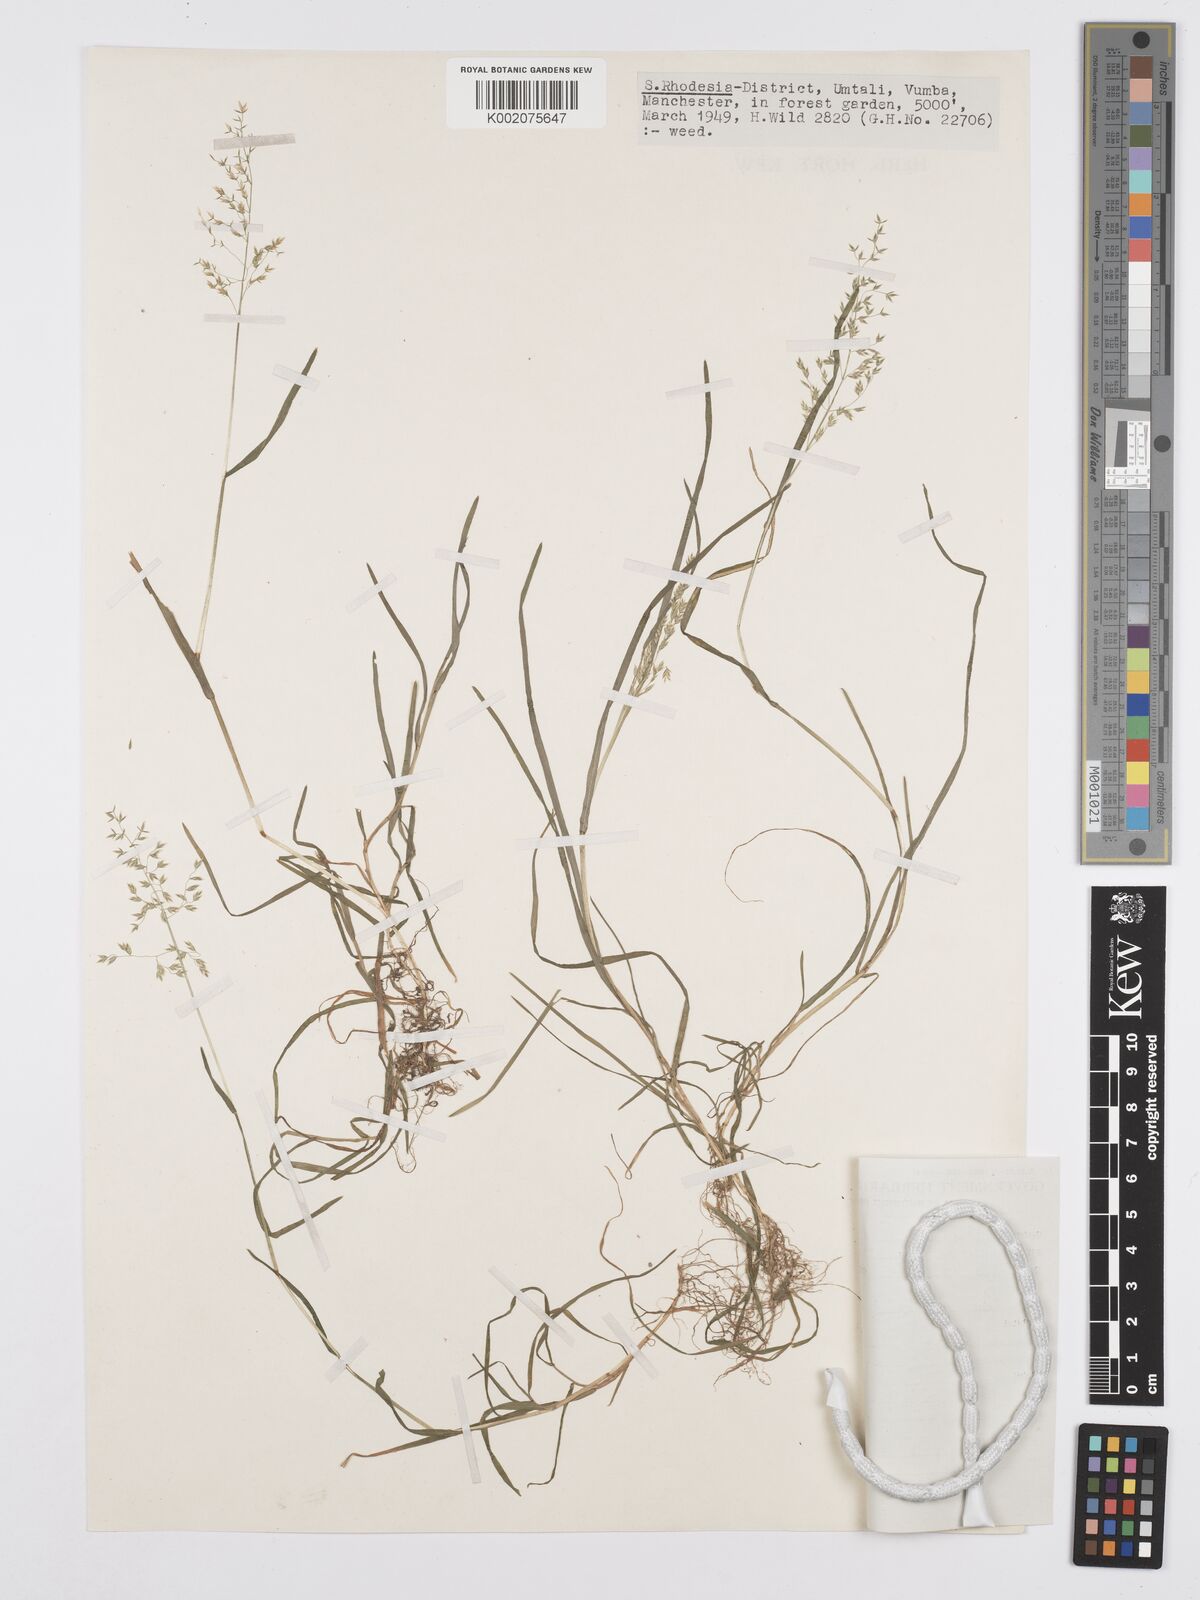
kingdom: Plantae
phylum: Tracheophyta
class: Liliopsida
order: Poales
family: Poaceae
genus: Poa
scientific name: Poa annua
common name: Annual bluegrass
